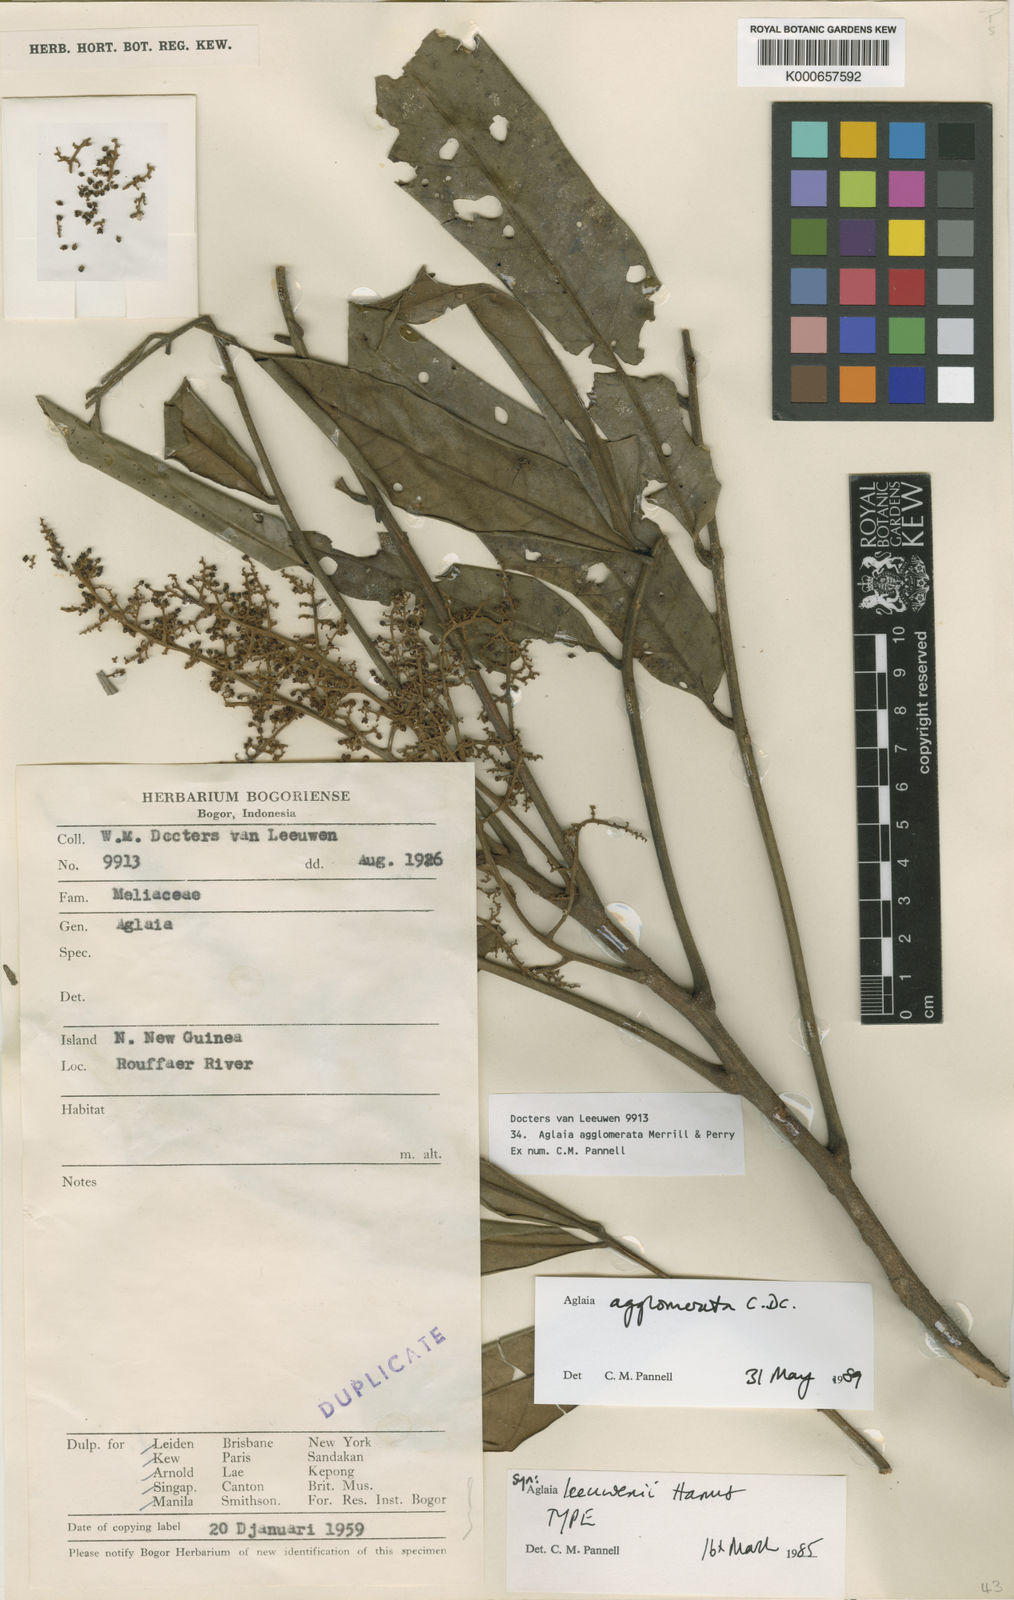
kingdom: Plantae
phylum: Tracheophyta
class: Magnoliopsida
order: Sapindales
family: Meliaceae
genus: Aglaia
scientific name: Aglaia agglomerata
